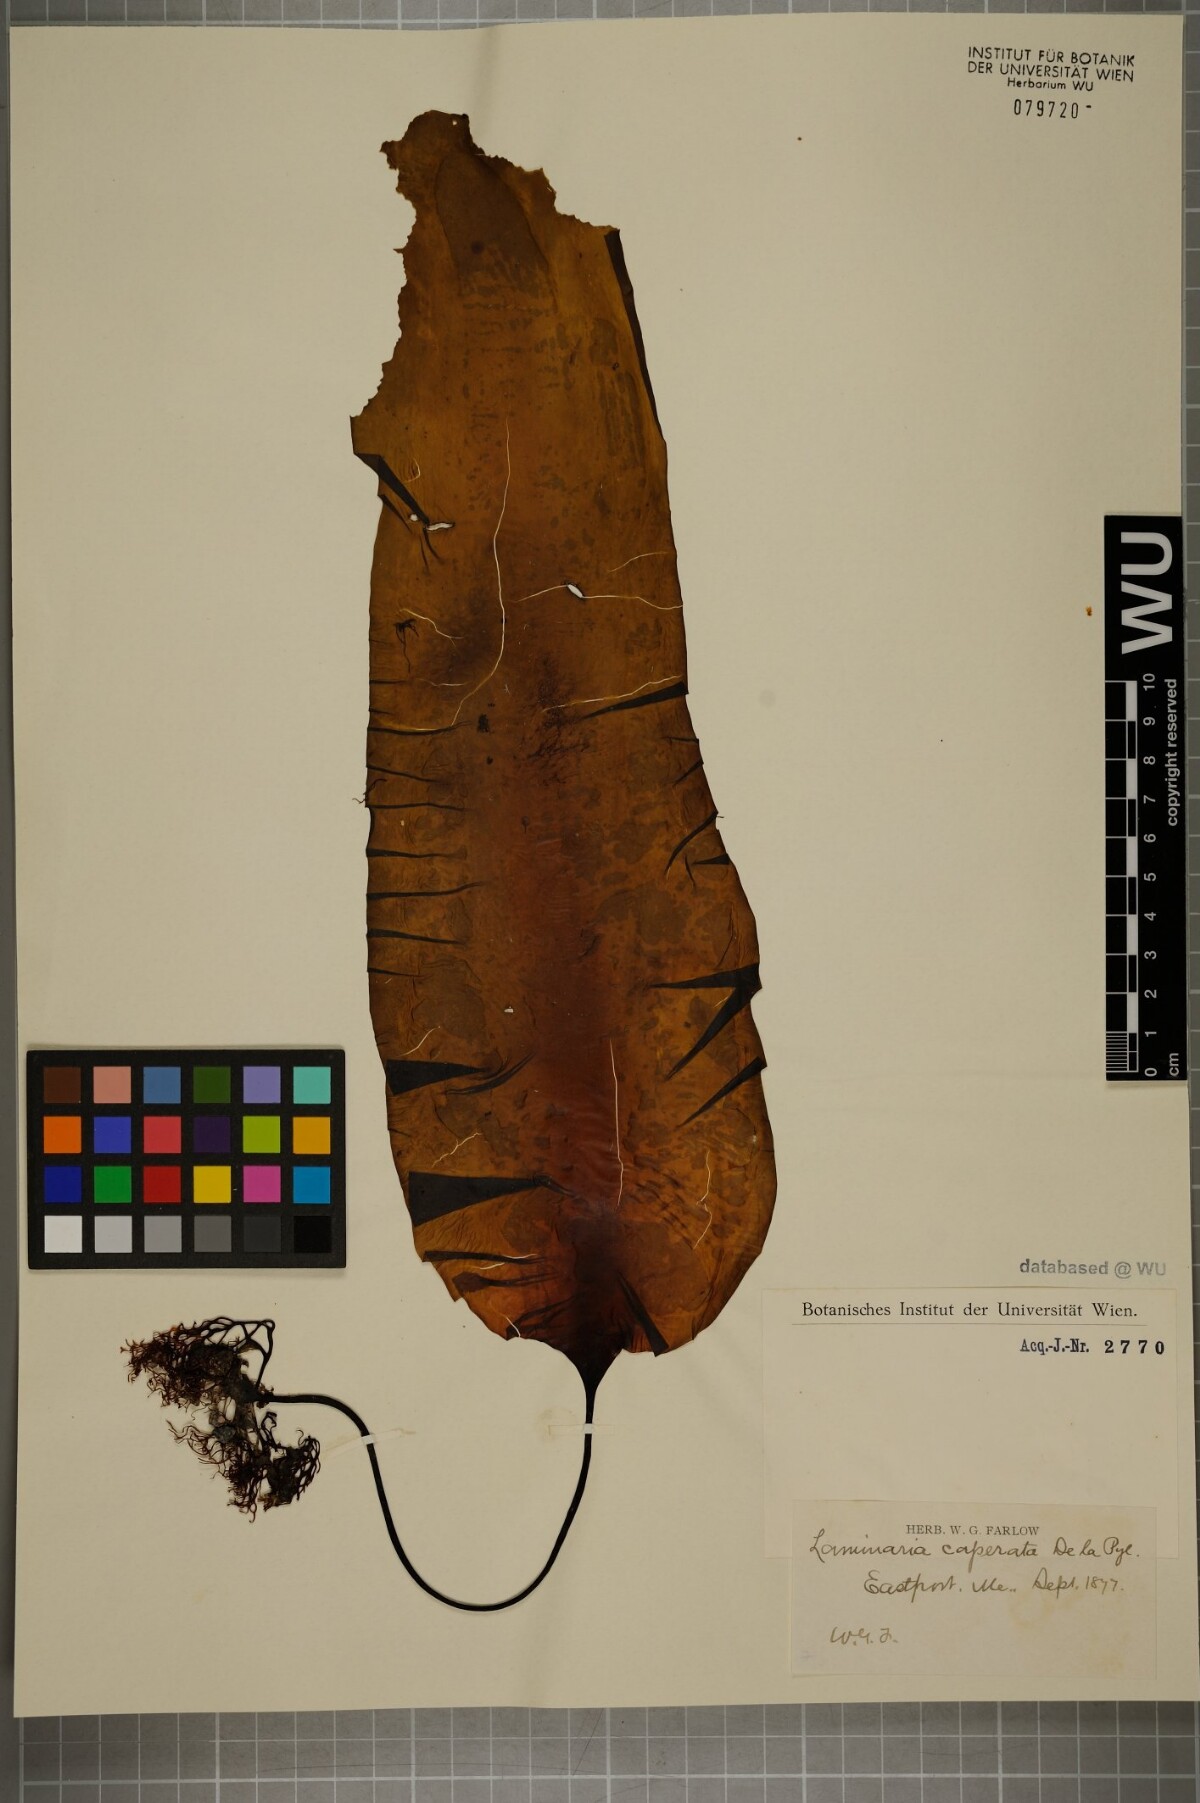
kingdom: Chromista
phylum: Ochrophyta
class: Phaeophyceae
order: Laminariales
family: Laminariaceae
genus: Saccharina
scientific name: Saccharina latissima
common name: Poor man's weather glass
